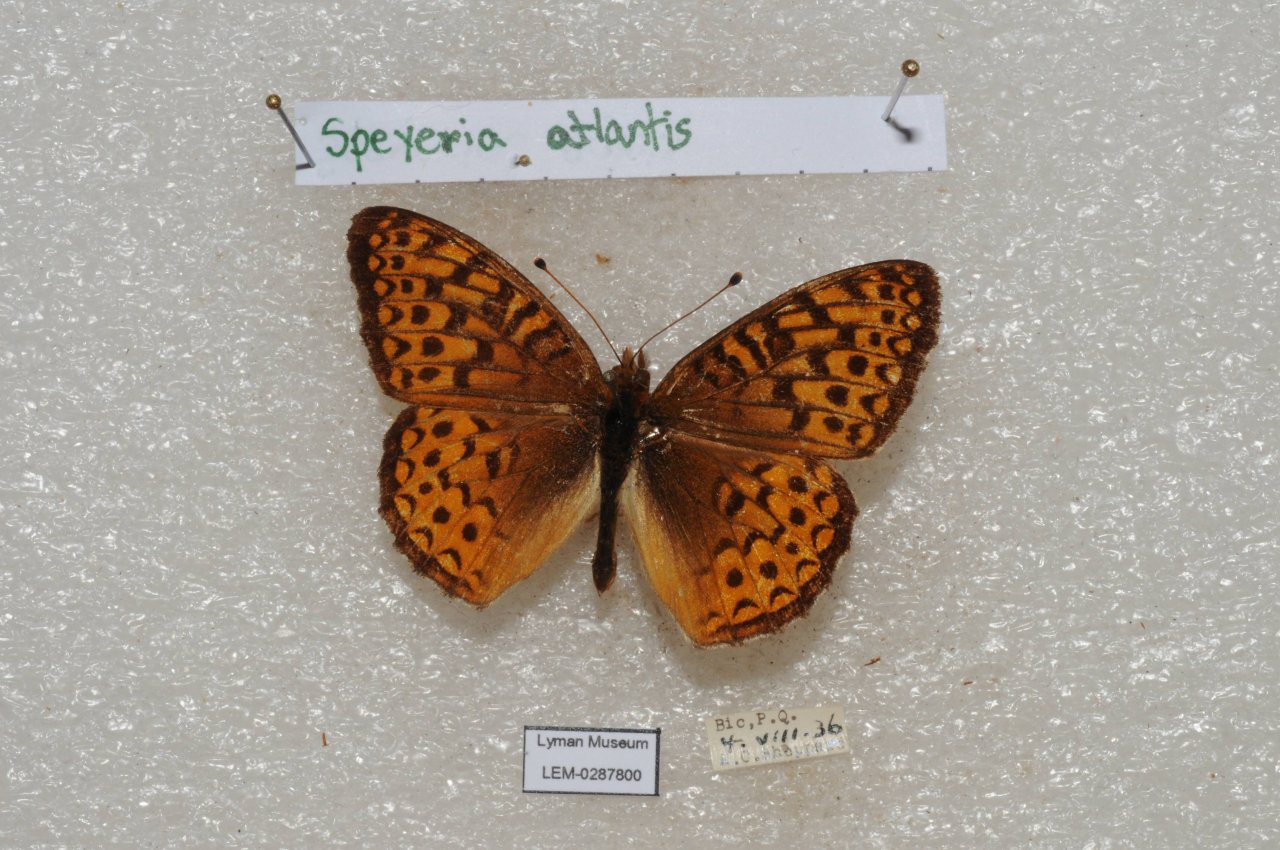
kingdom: Animalia
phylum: Arthropoda
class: Insecta
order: Lepidoptera
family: Nymphalidae
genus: Speyeria
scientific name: Speyeria atlantis
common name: Atlantis Fritillary
